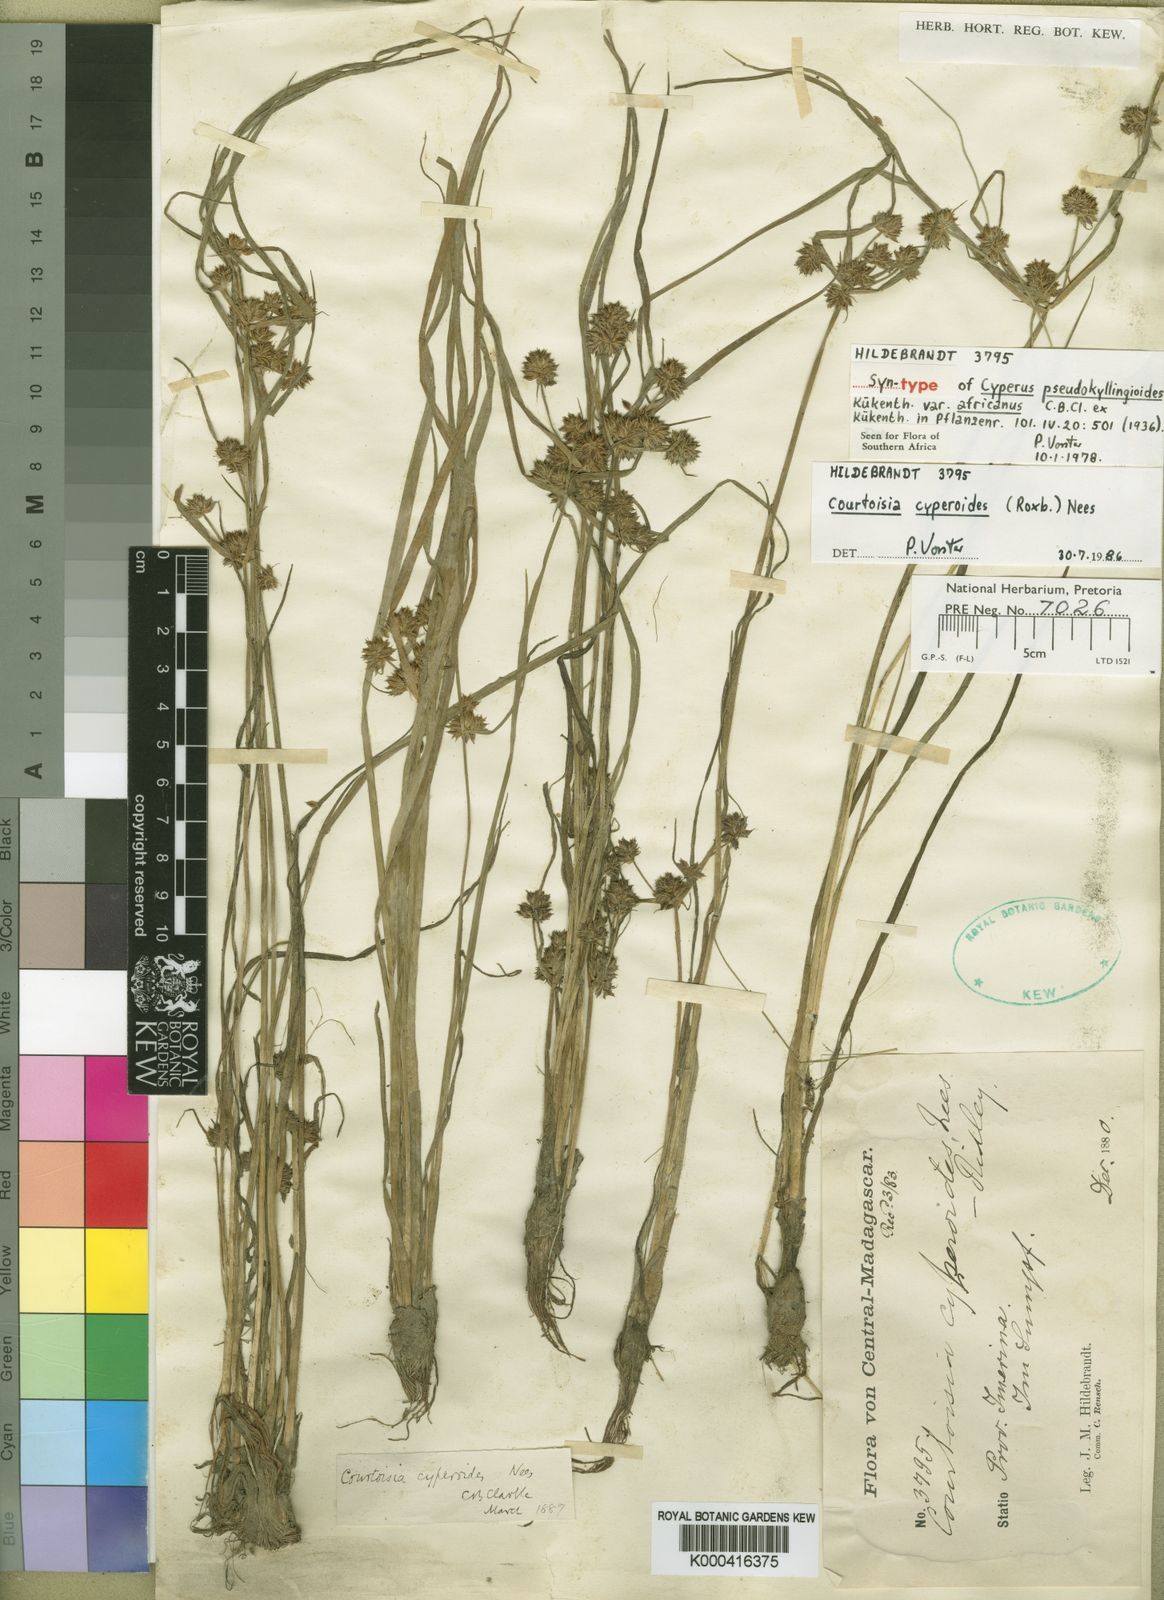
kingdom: Plantae
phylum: Tracheophyta
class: Liliopsida
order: Poales
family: Cyperaceae
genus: Cyperus
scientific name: Cyperus
